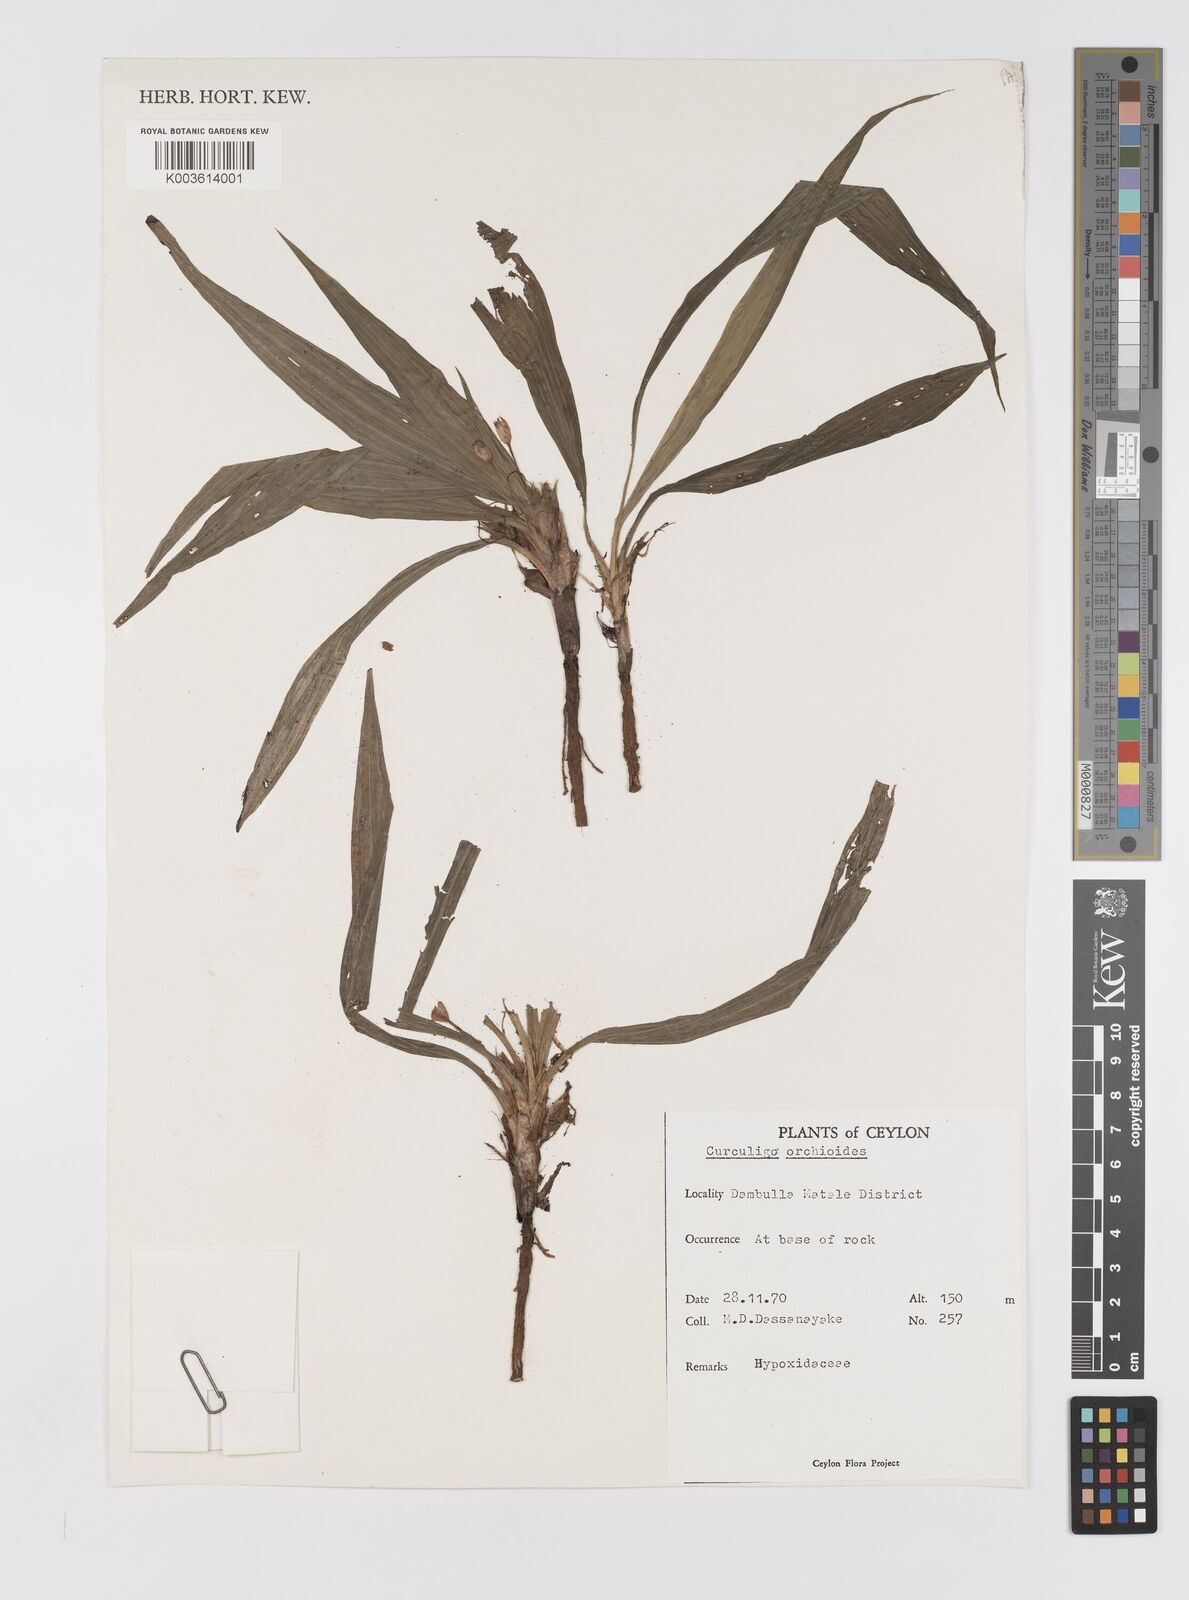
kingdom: Plantae
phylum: Tracheophyta
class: Liliopsida
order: Asparagales
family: Hypoxidaceae
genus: Curculigo
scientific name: Curculigo orchioides
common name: Golden eye-grass
